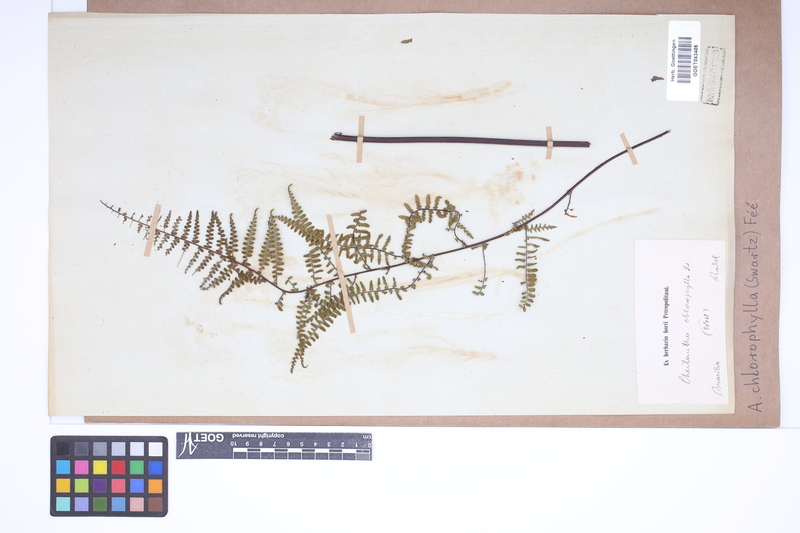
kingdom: Plantae
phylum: Tracheophyta
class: Polypodiopsida
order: Polypodiales
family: Pteridaceae
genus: Adiantopsis
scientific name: Adiantopsis chlorophylla
